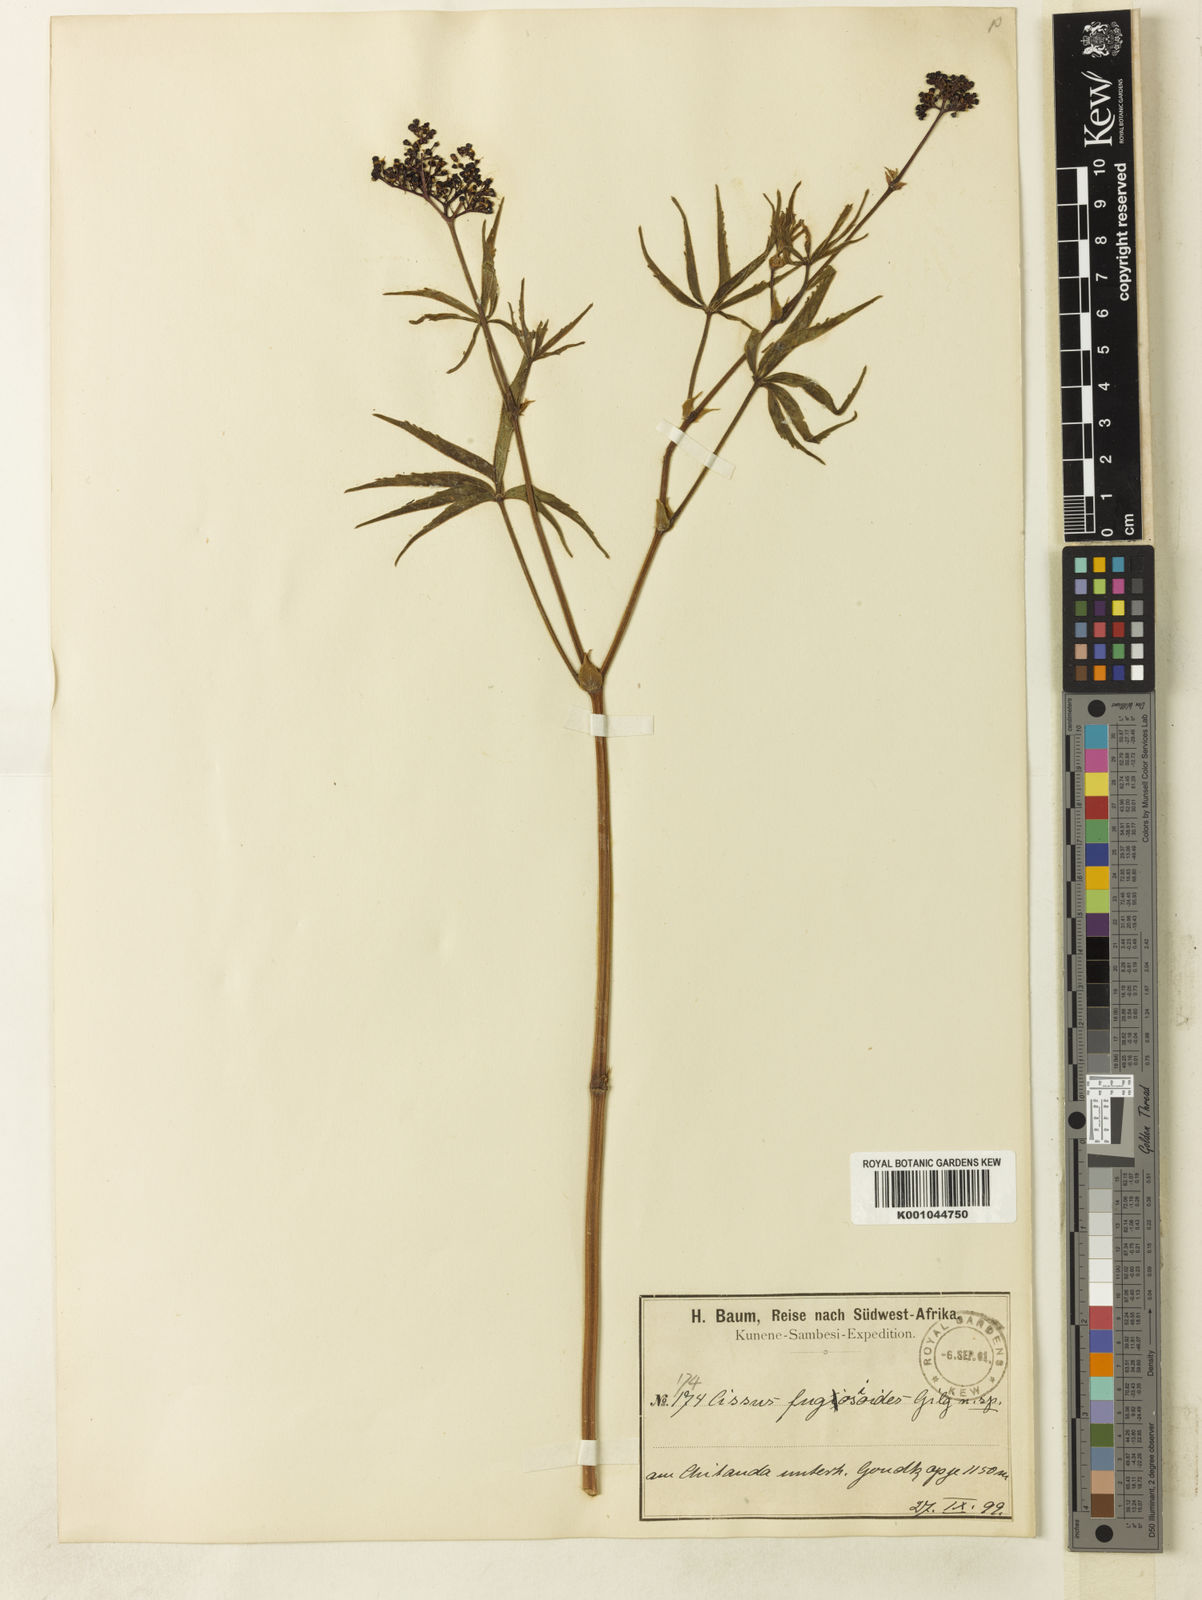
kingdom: Plantae
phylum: Tracheophyta
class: Magnoliopsida
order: Vitales
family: Vitaceae
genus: Cyphostemma
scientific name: Cyphostemma fugosioides
